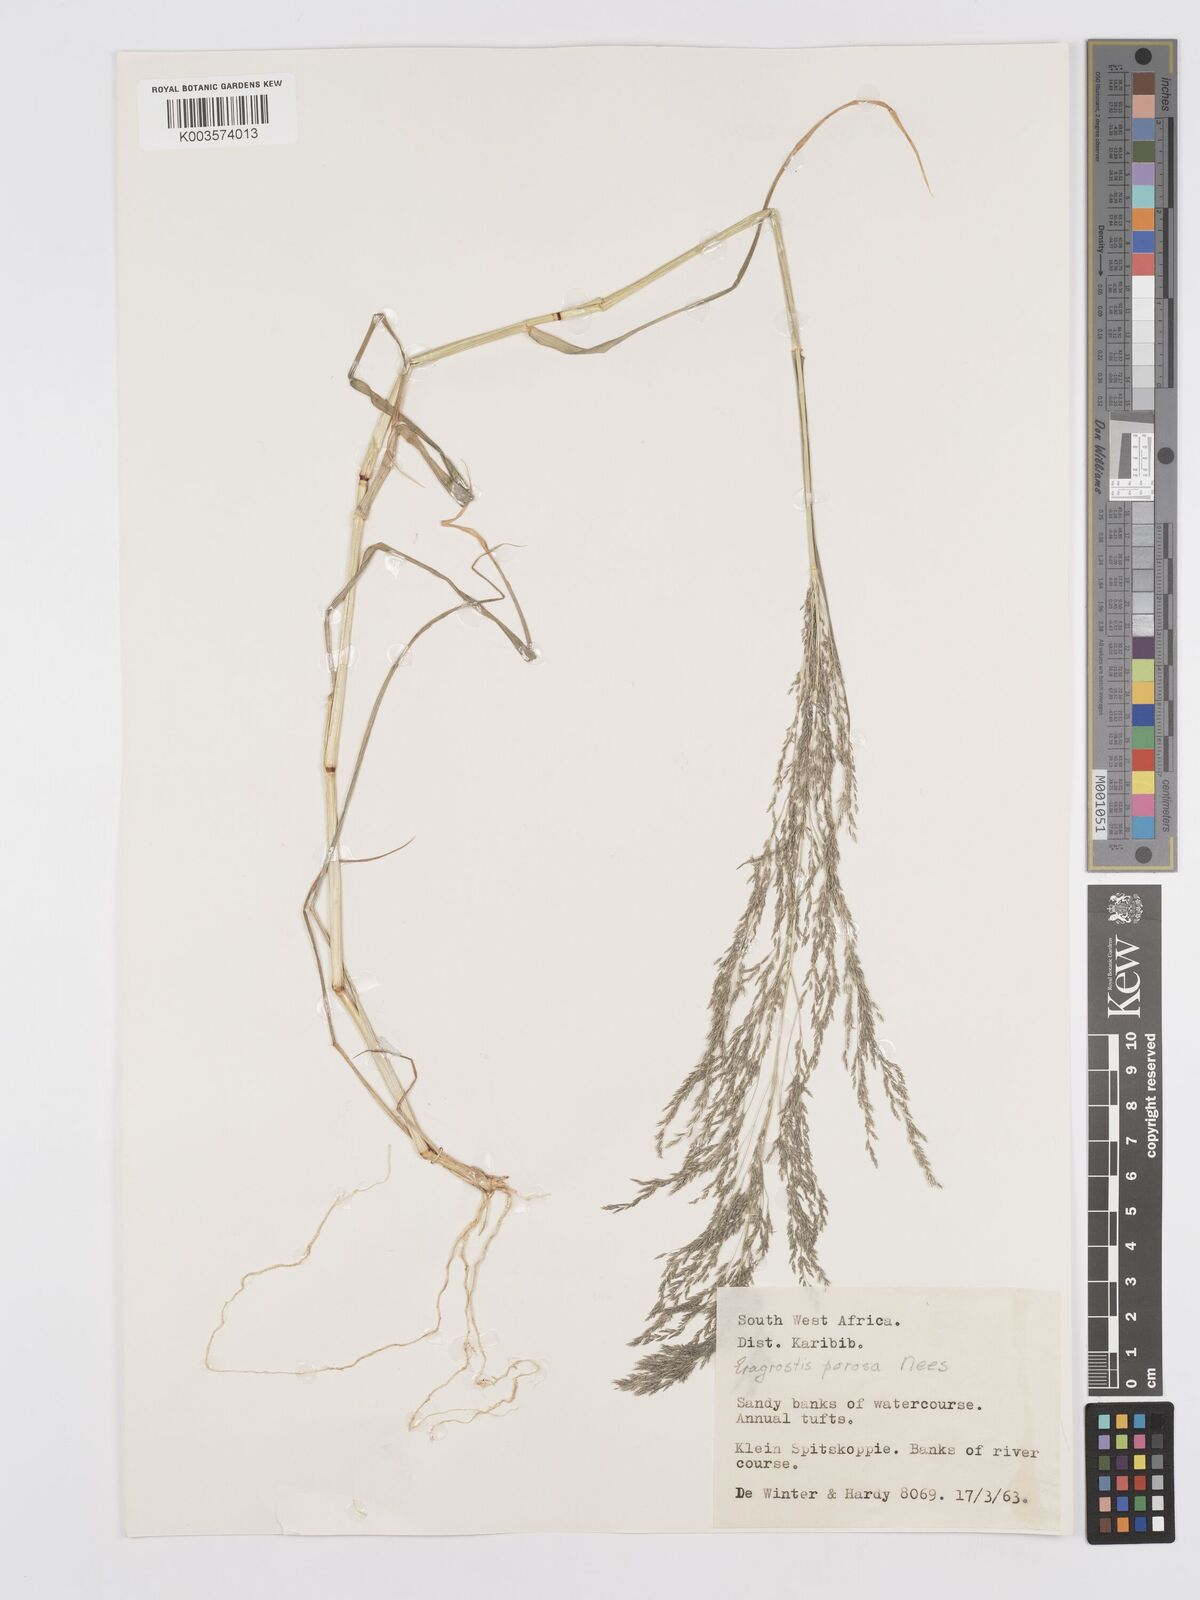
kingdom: Plantae
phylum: Tracheophyta
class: Liliopsida
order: Poales
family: Poaceae
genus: Eragrostis
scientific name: Eragrostis cylindriflora
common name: Cylinderflower lovegrass
